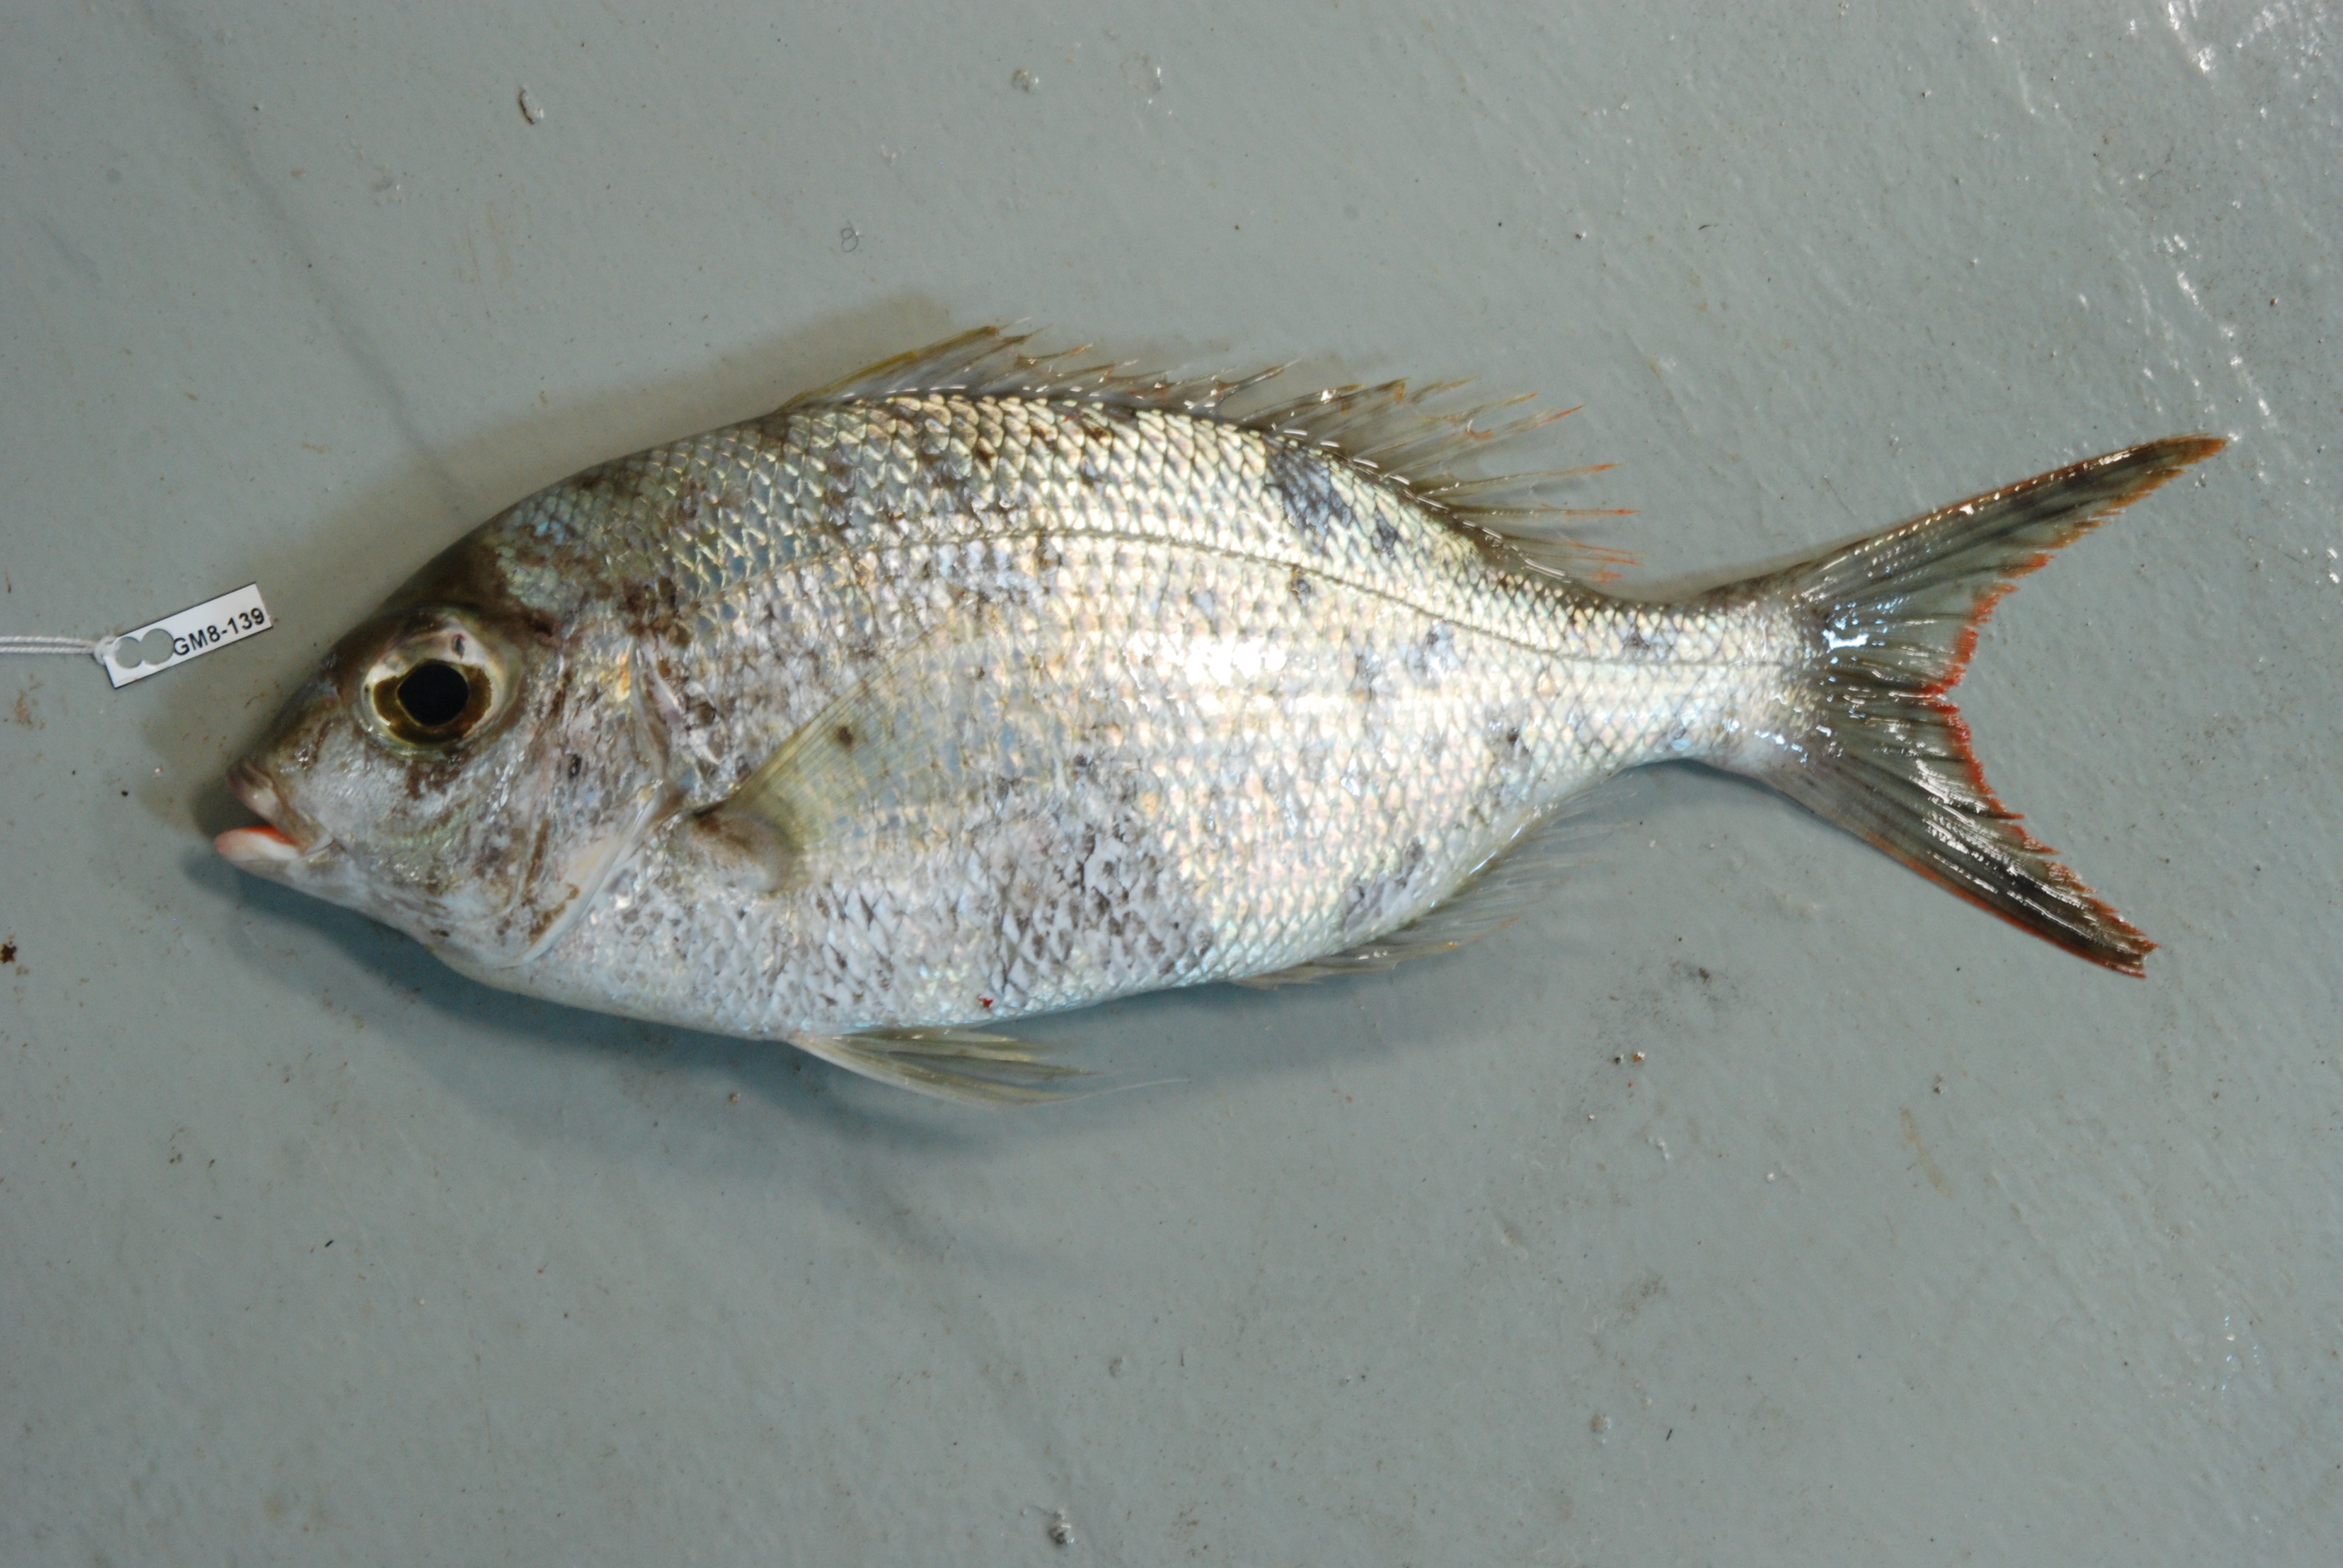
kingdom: Animalia
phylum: Chordata
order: Perciformes
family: Lethrinidae
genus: Gymnocranius
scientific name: Gymnocranius griseus
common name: Grey emperor
